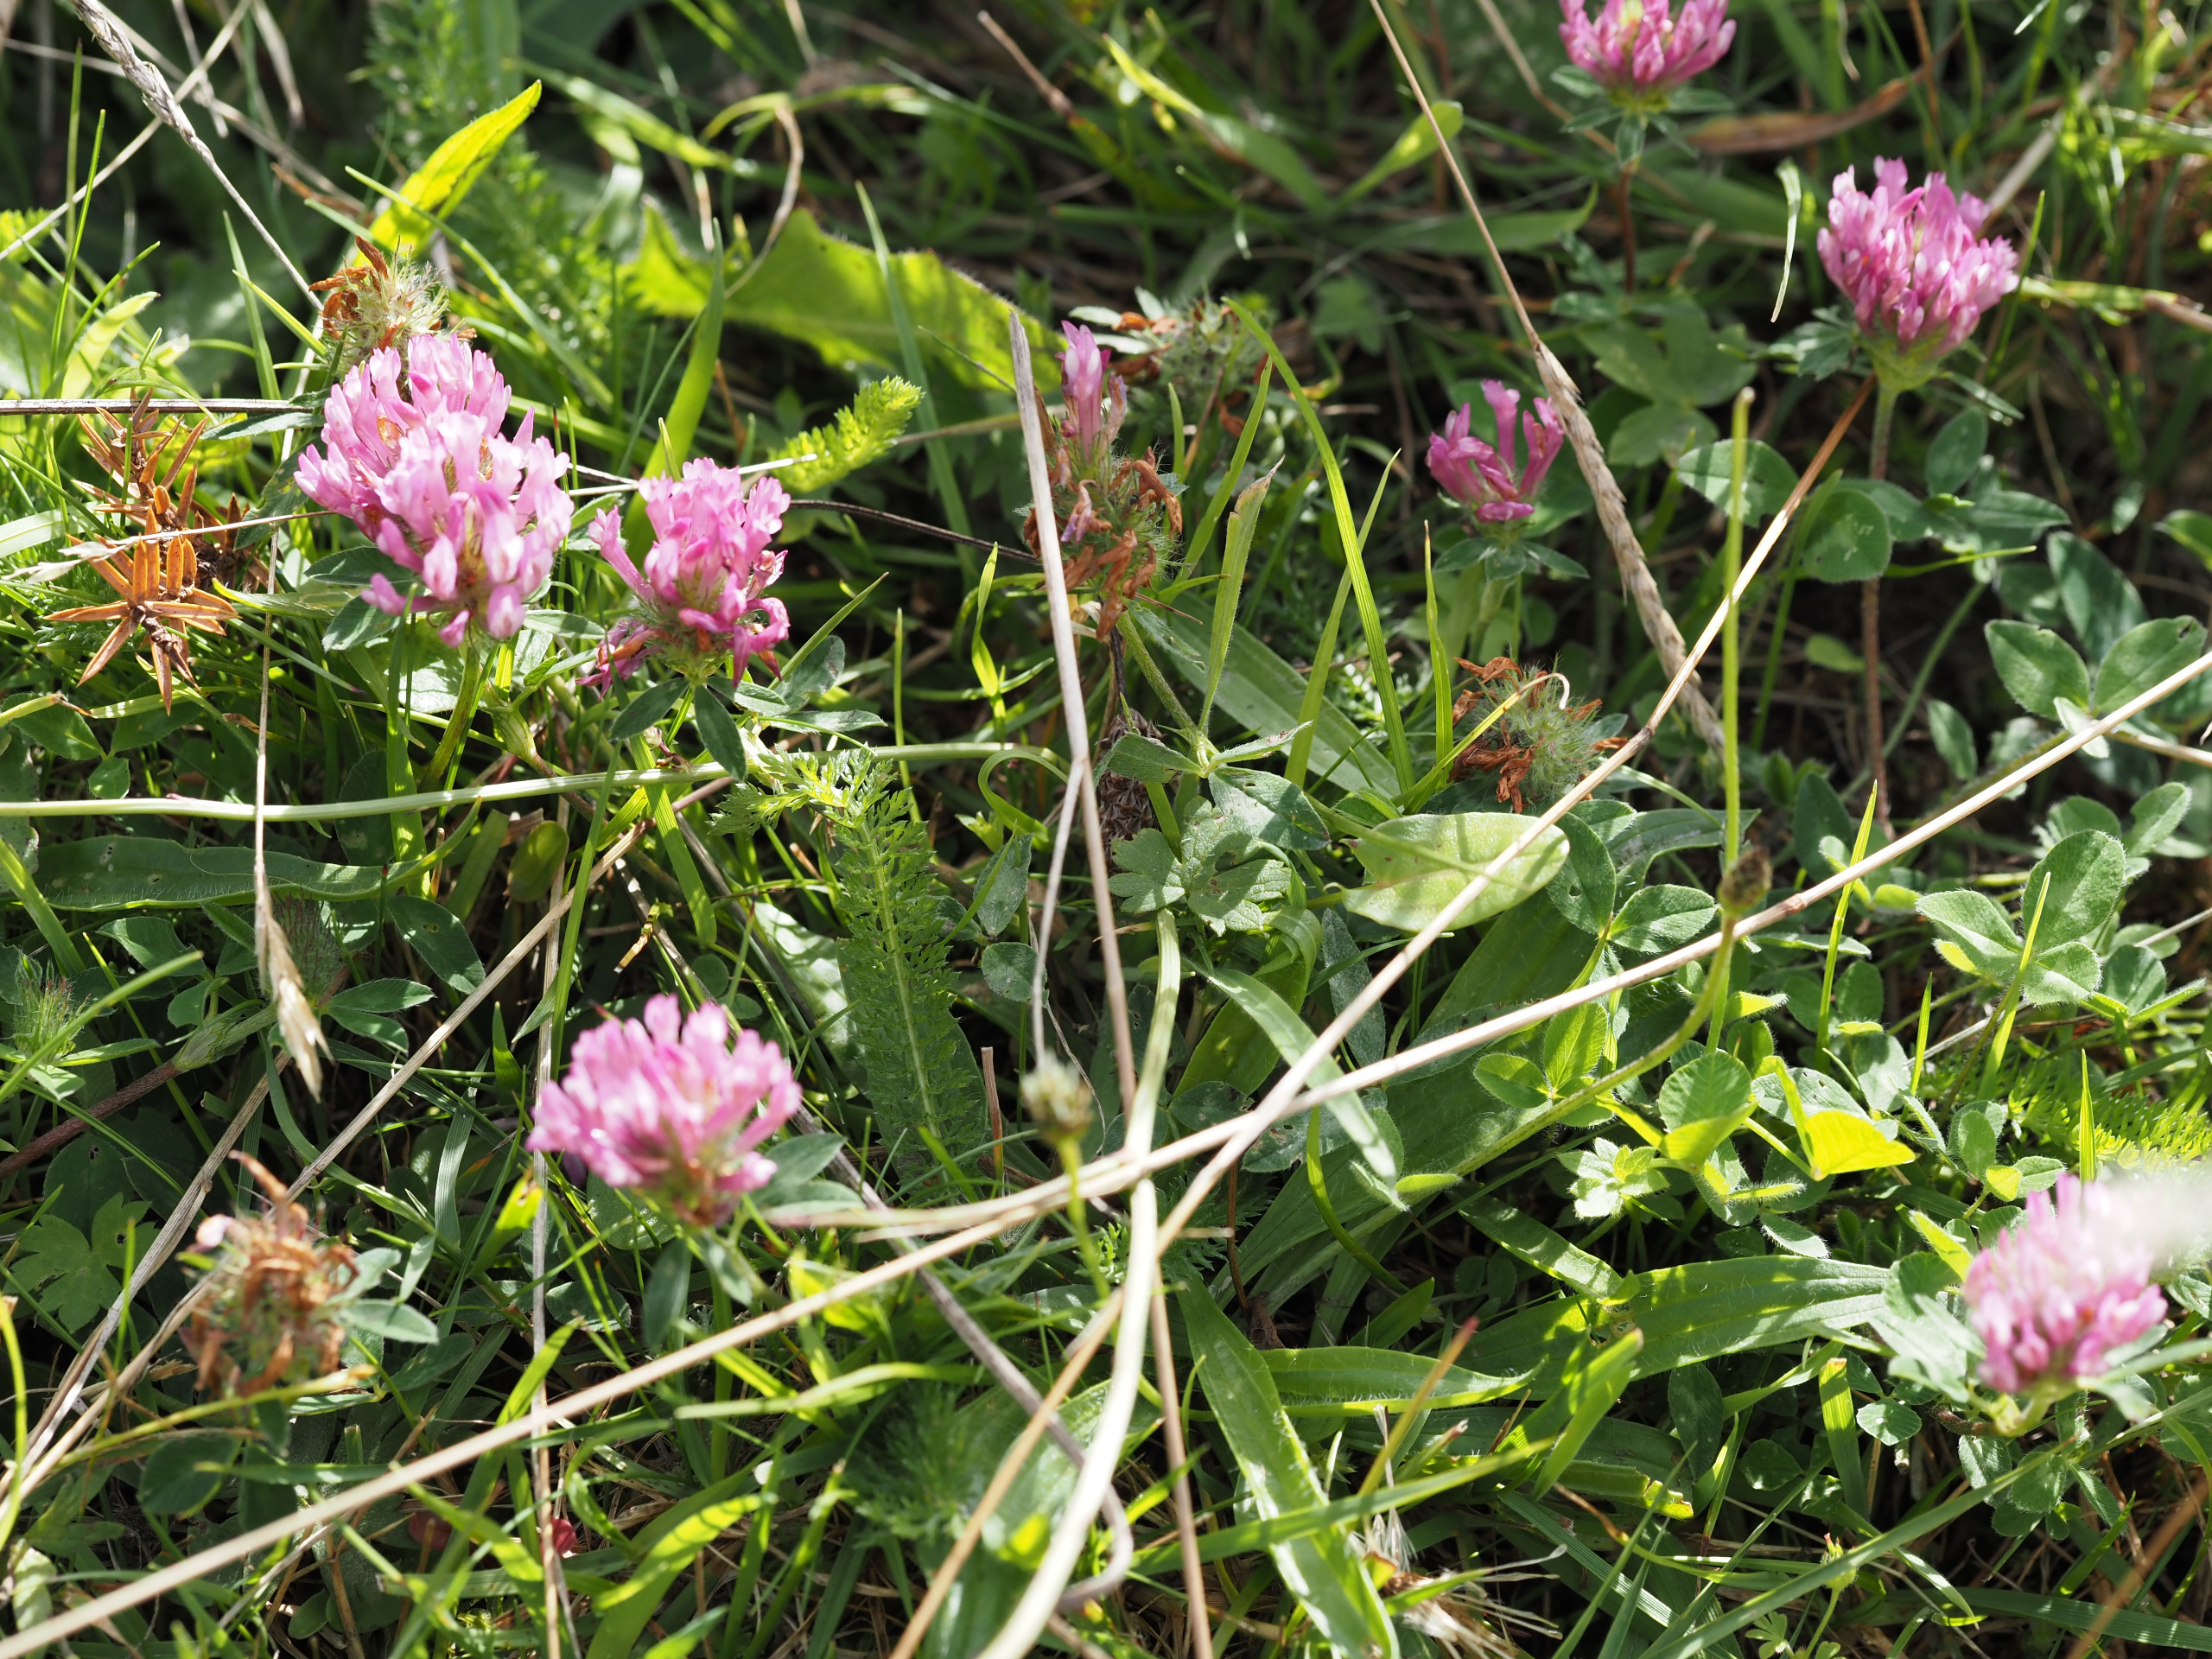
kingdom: Plantae
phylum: Tracheophyta
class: Magnoliopsida
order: Fabales
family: Fabaceae
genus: Trifolium
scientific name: Trifolium pratense
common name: Rød-kløver
